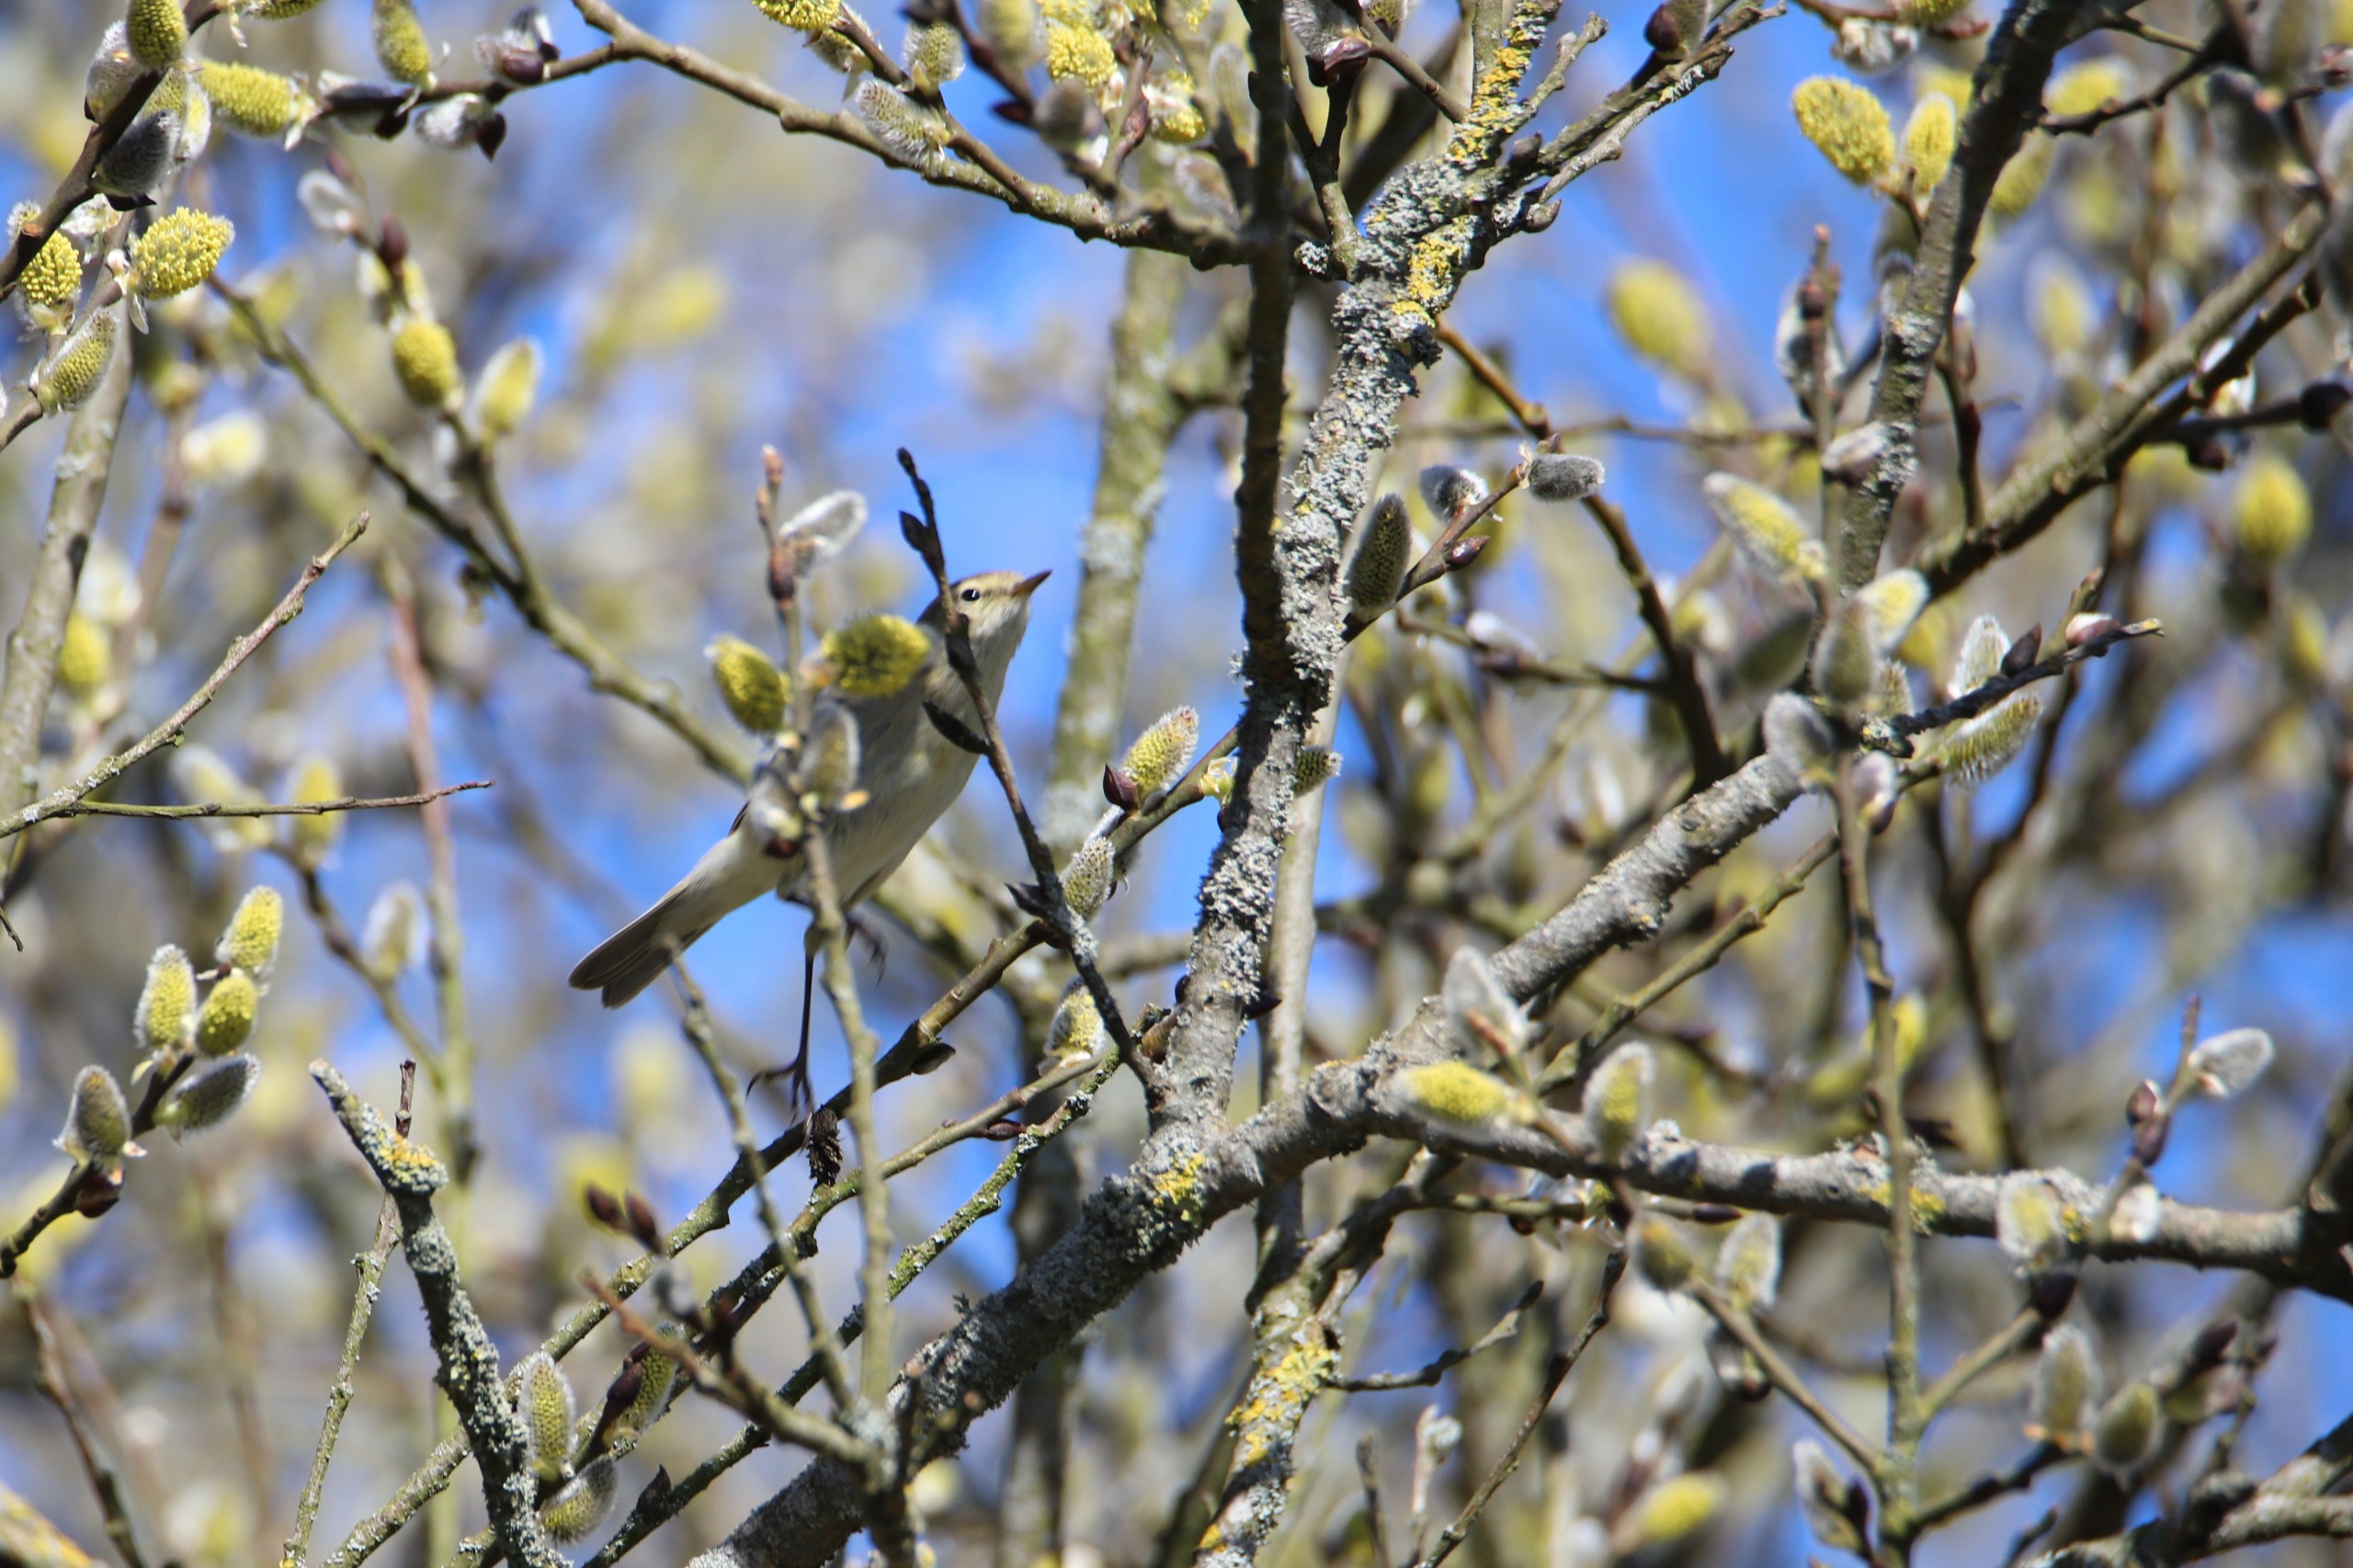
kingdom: Animalia
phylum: Chordata
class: Aves
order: Passeriformes
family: Phylloscopidae
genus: Phylloscopus
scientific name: Phylloscopus collybita
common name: Gransanger
